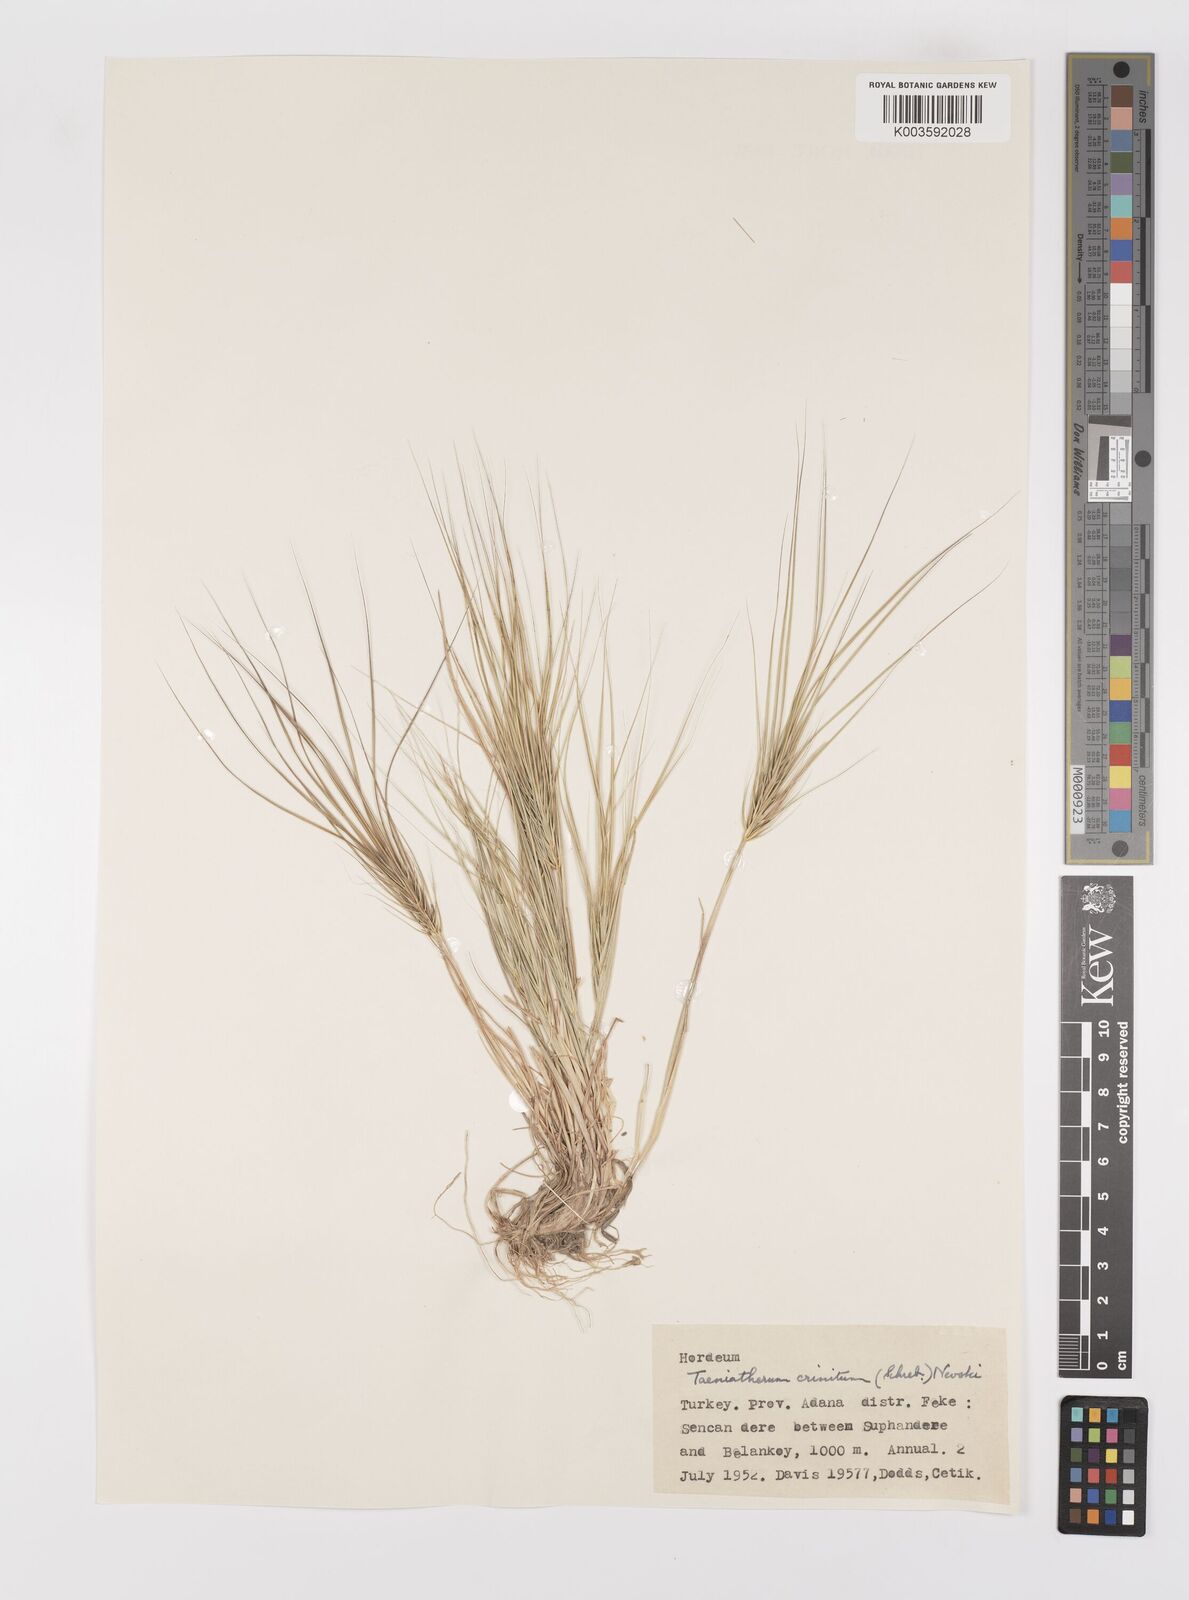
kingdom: Plantae
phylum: Tracheophyta
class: Liliopsida
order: Poales
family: Poaceae
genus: Taeniatherum
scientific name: Taeniatherum caput-medusae
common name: Medusahead
